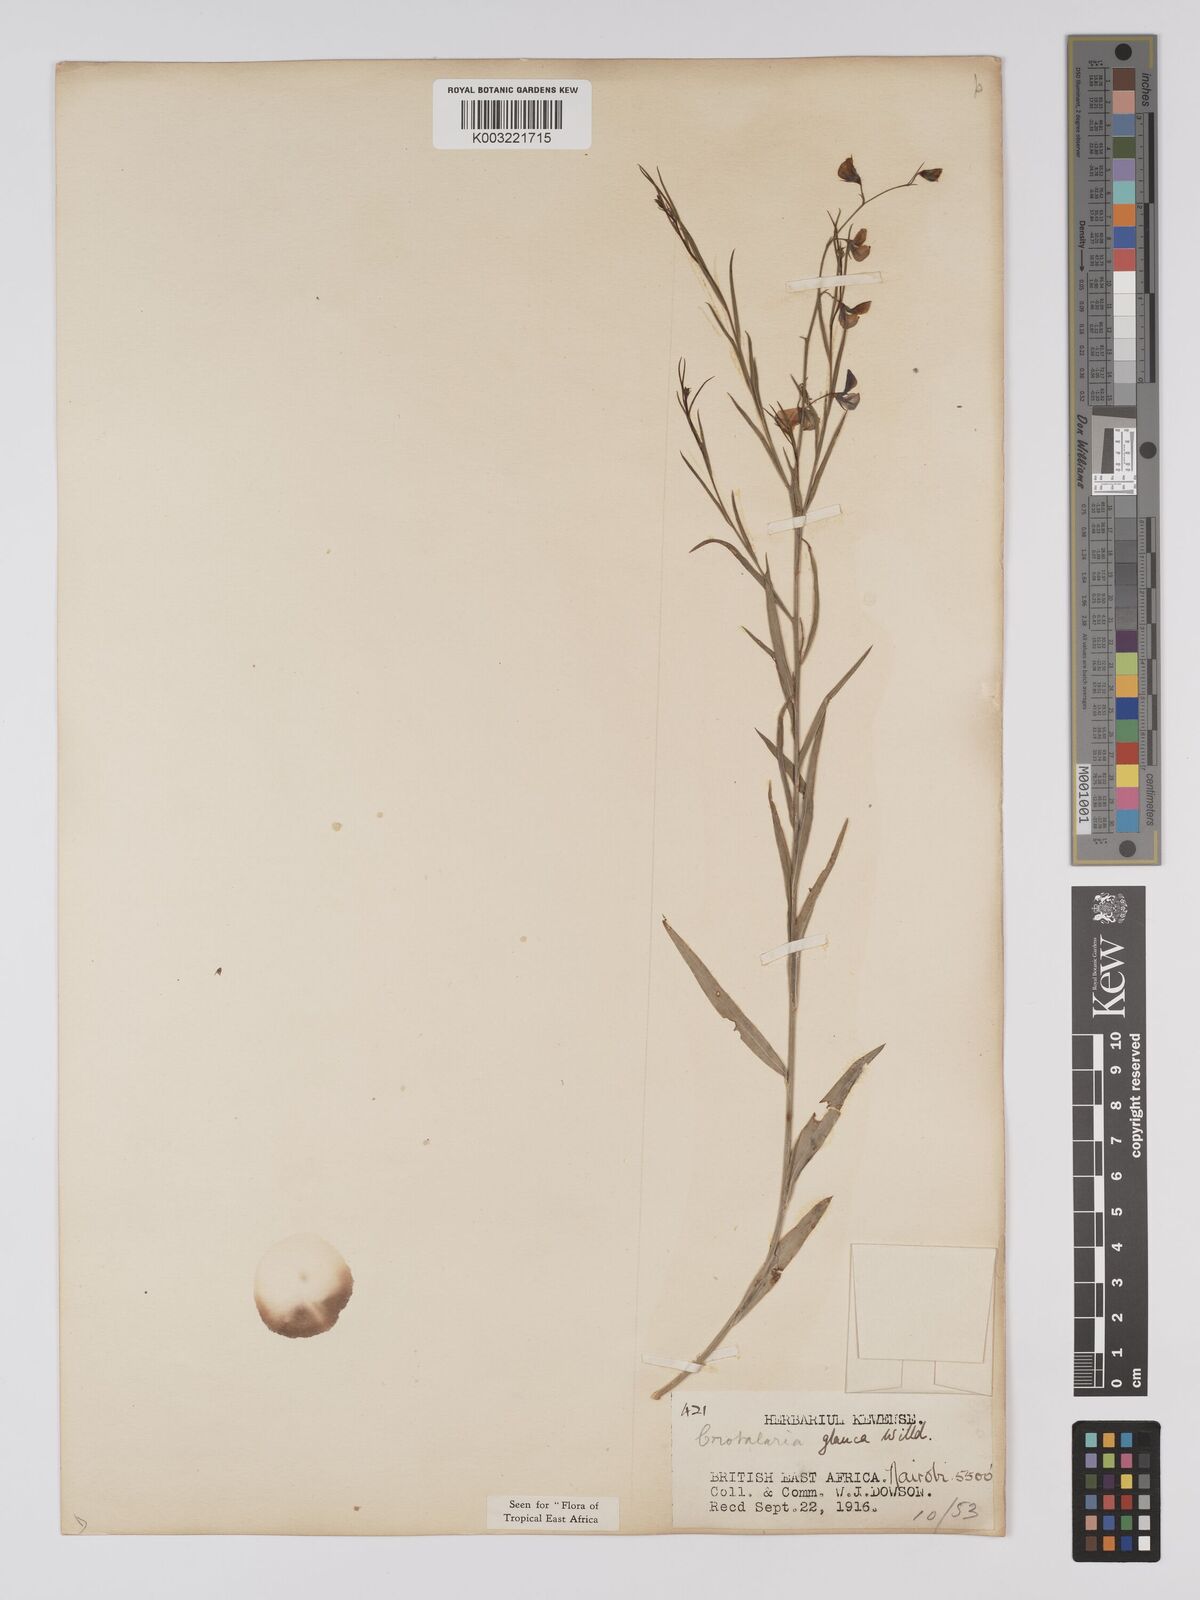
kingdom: Plantae
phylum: Tracheophyta
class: Magnoliopsida
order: Fabales
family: Fabaceae
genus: Crotalaria
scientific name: Crotalaria glauca
